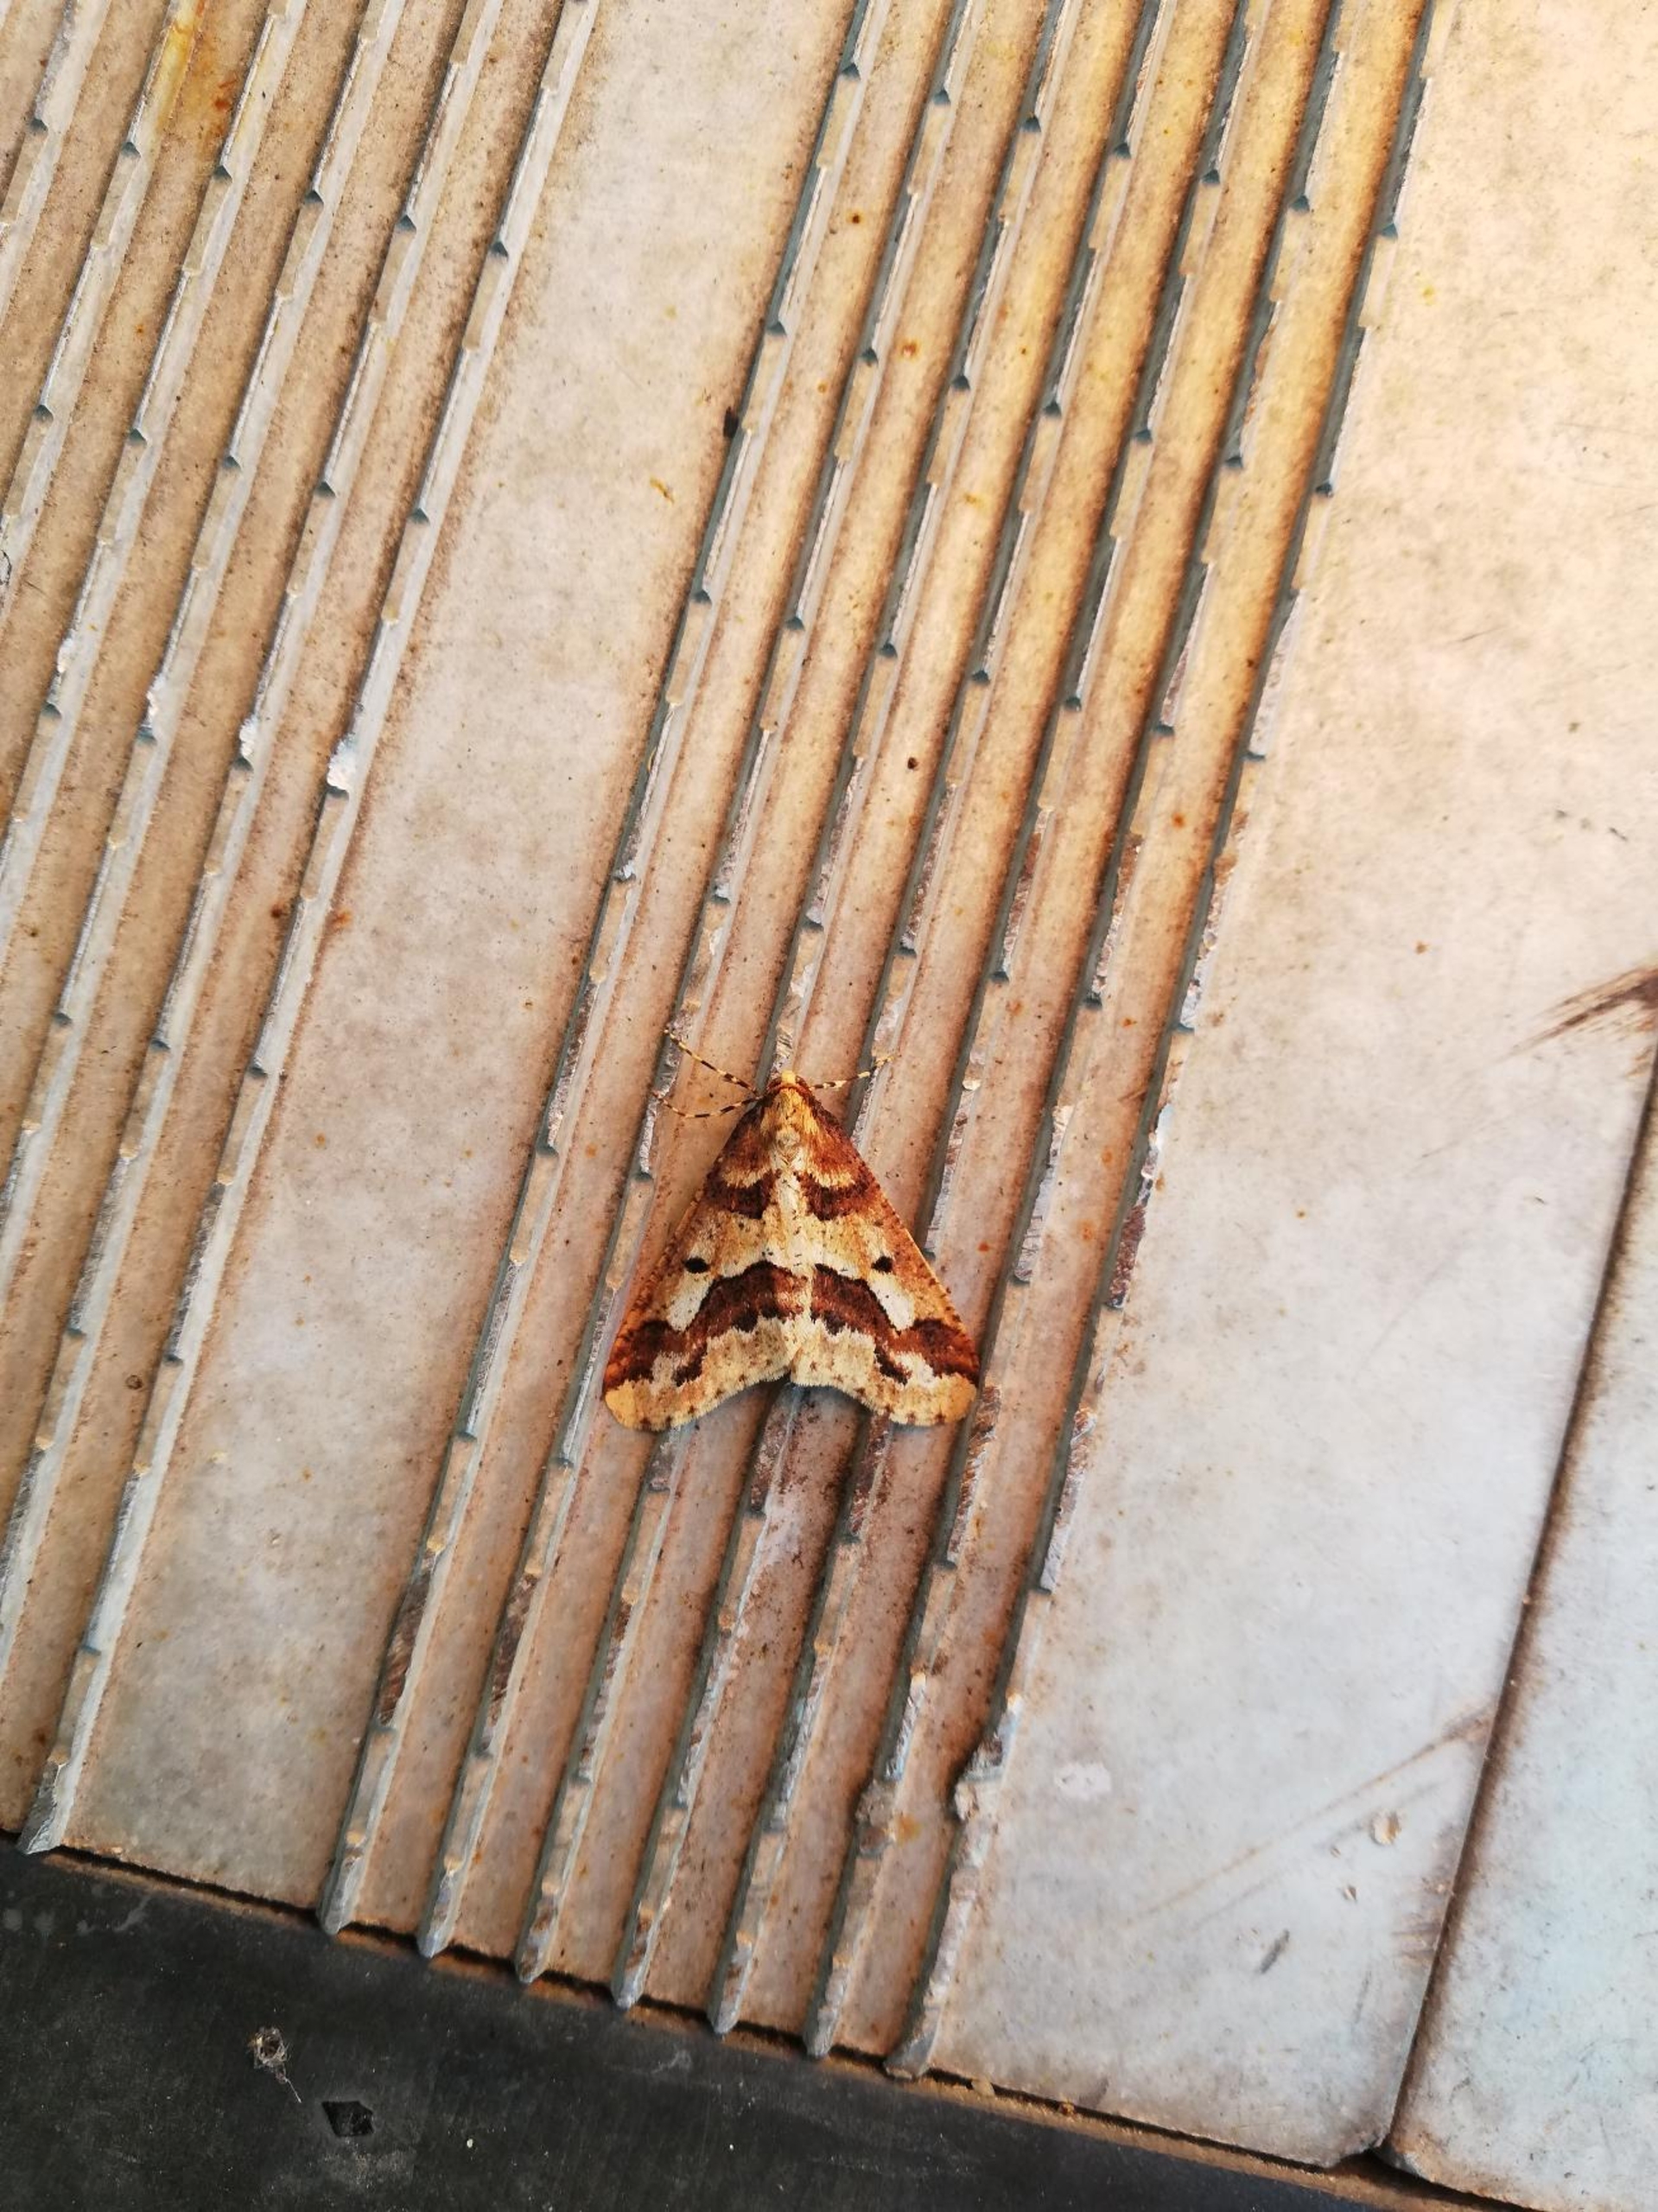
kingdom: Animalia
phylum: Arthropoda
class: Insecta
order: Lepidoptera
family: Geometridae
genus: Erannis
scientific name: Erannis defoliaria
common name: Stor frostmåler
